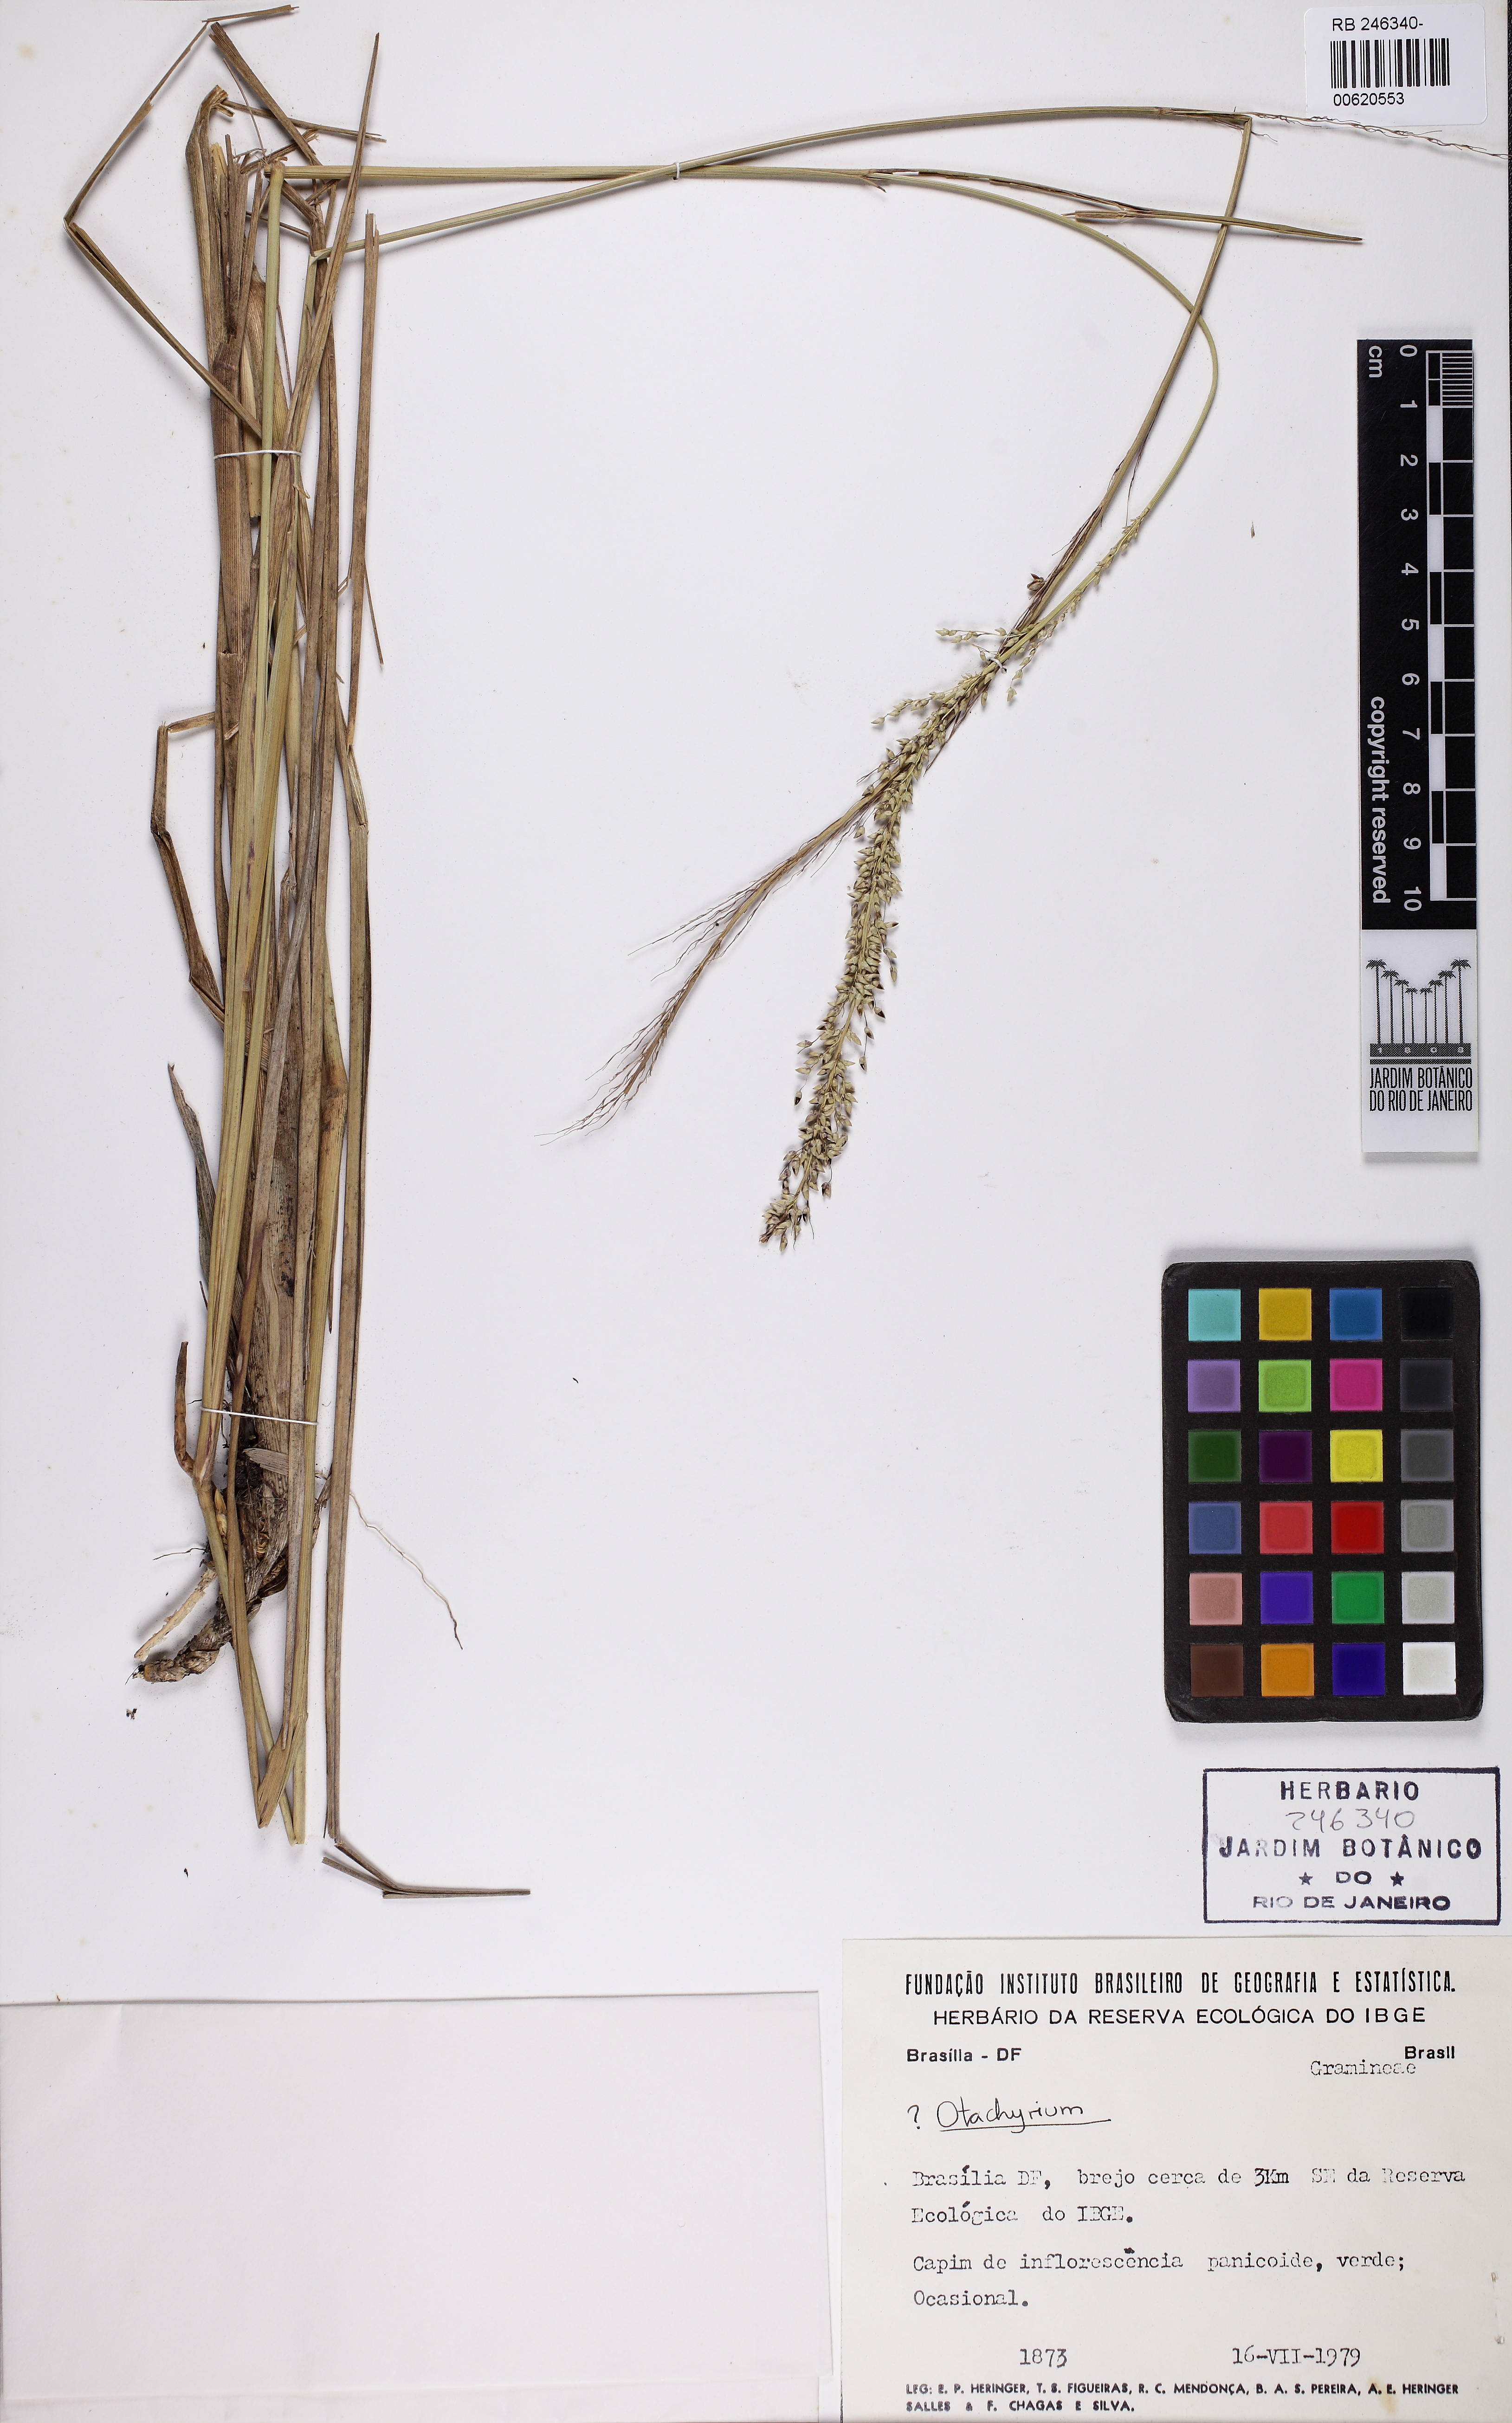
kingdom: Plantae
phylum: Tracheophyta
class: Liliopsida
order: Poales
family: Poaceae
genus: Otachyrium
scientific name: Otachyrium
